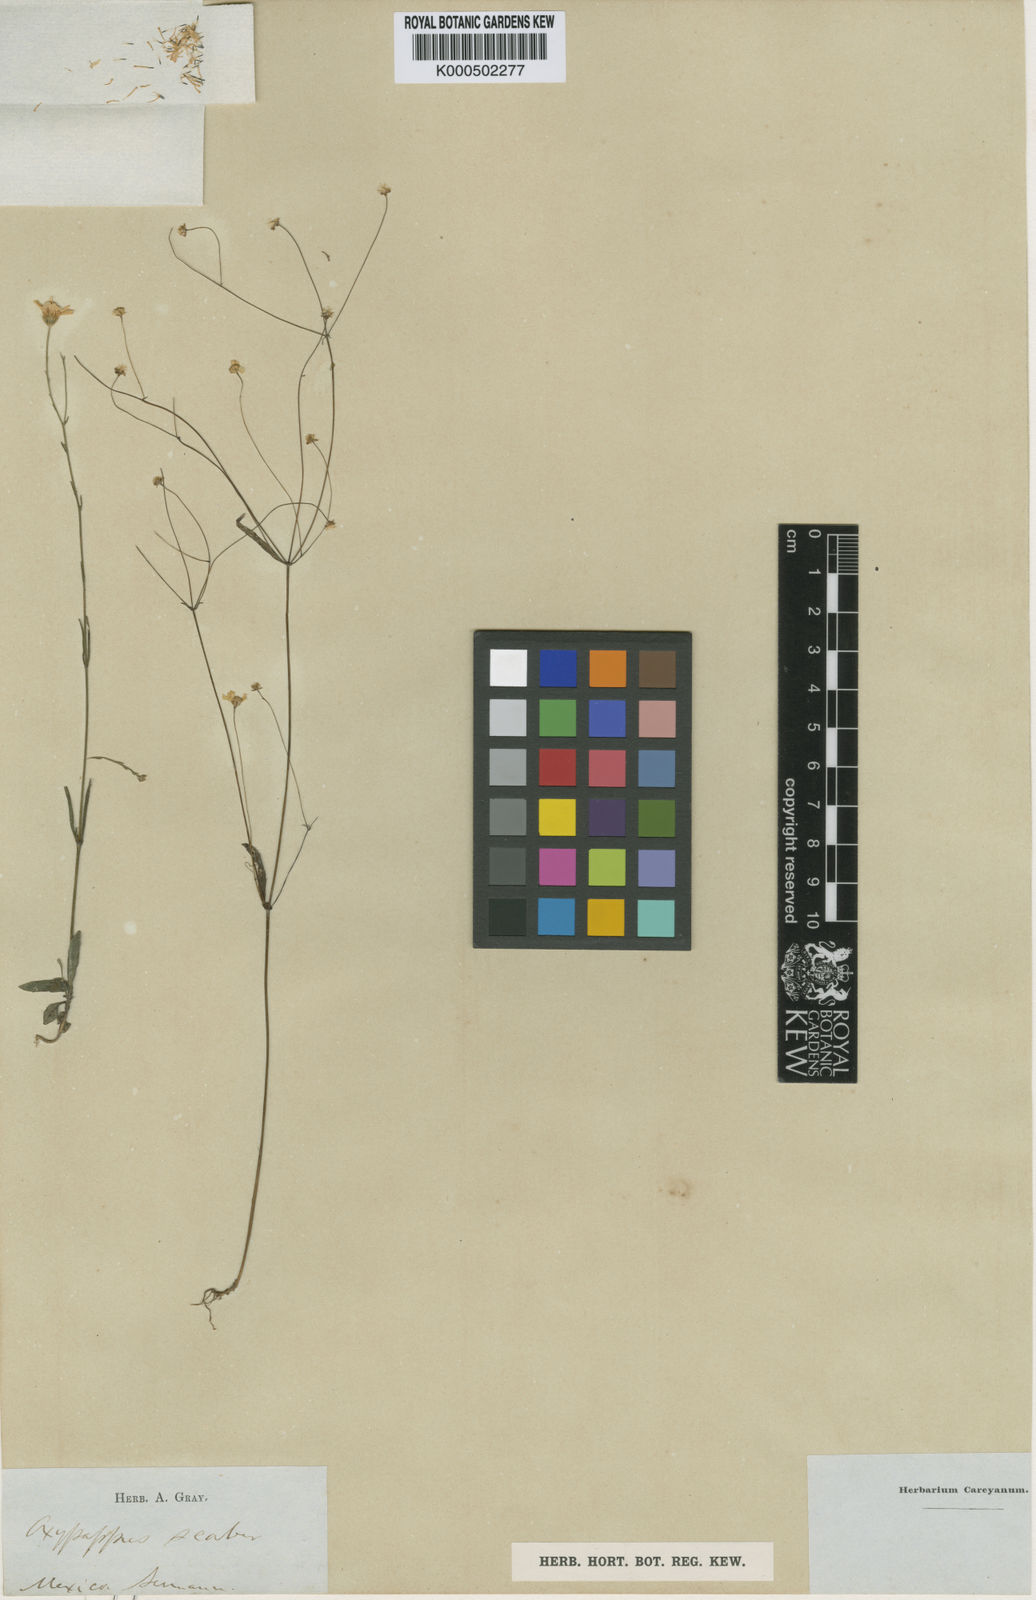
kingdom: Plantae
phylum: Tracheophyta
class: Magnoliopsida
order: Asterales
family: Asteraceae
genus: Oxypappus
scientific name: Oxypappus scaber
